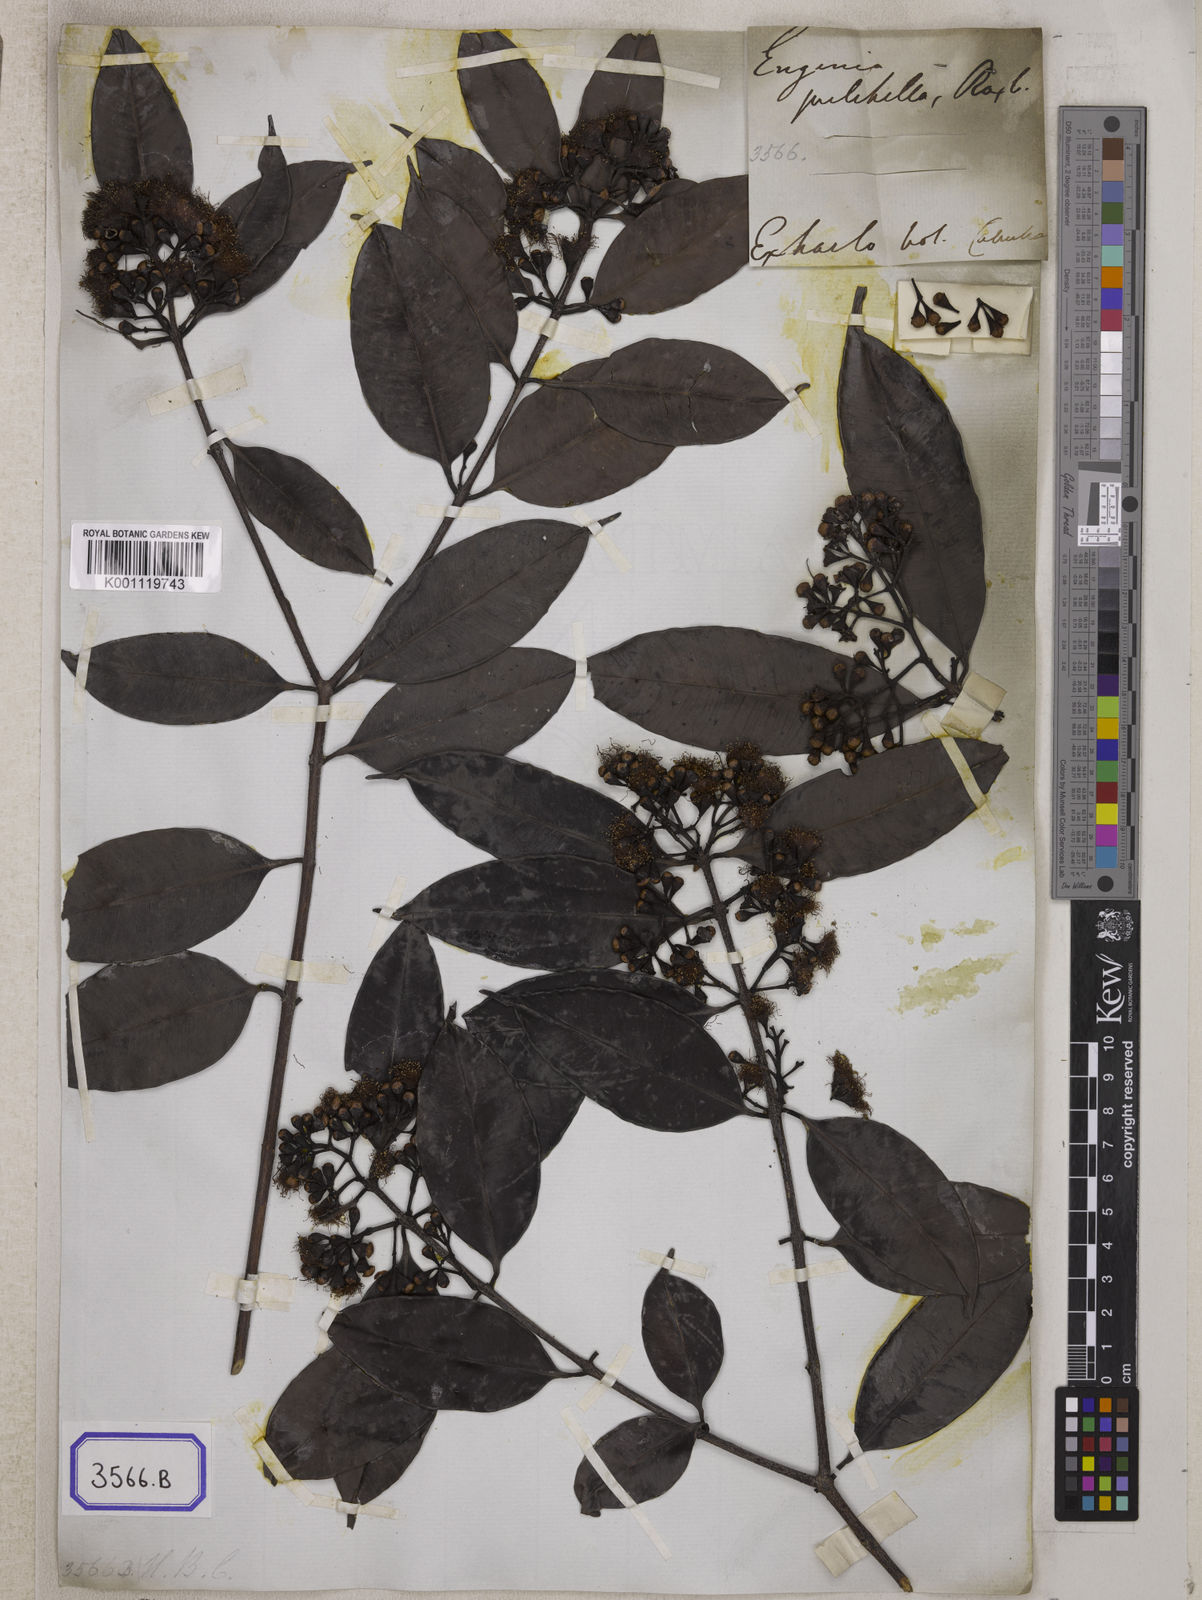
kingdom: Plantae
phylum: Tracheophyta
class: Magnoliopsida
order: Myrtales
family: Myrtaceae
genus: Syzygium
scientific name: Syzygium
